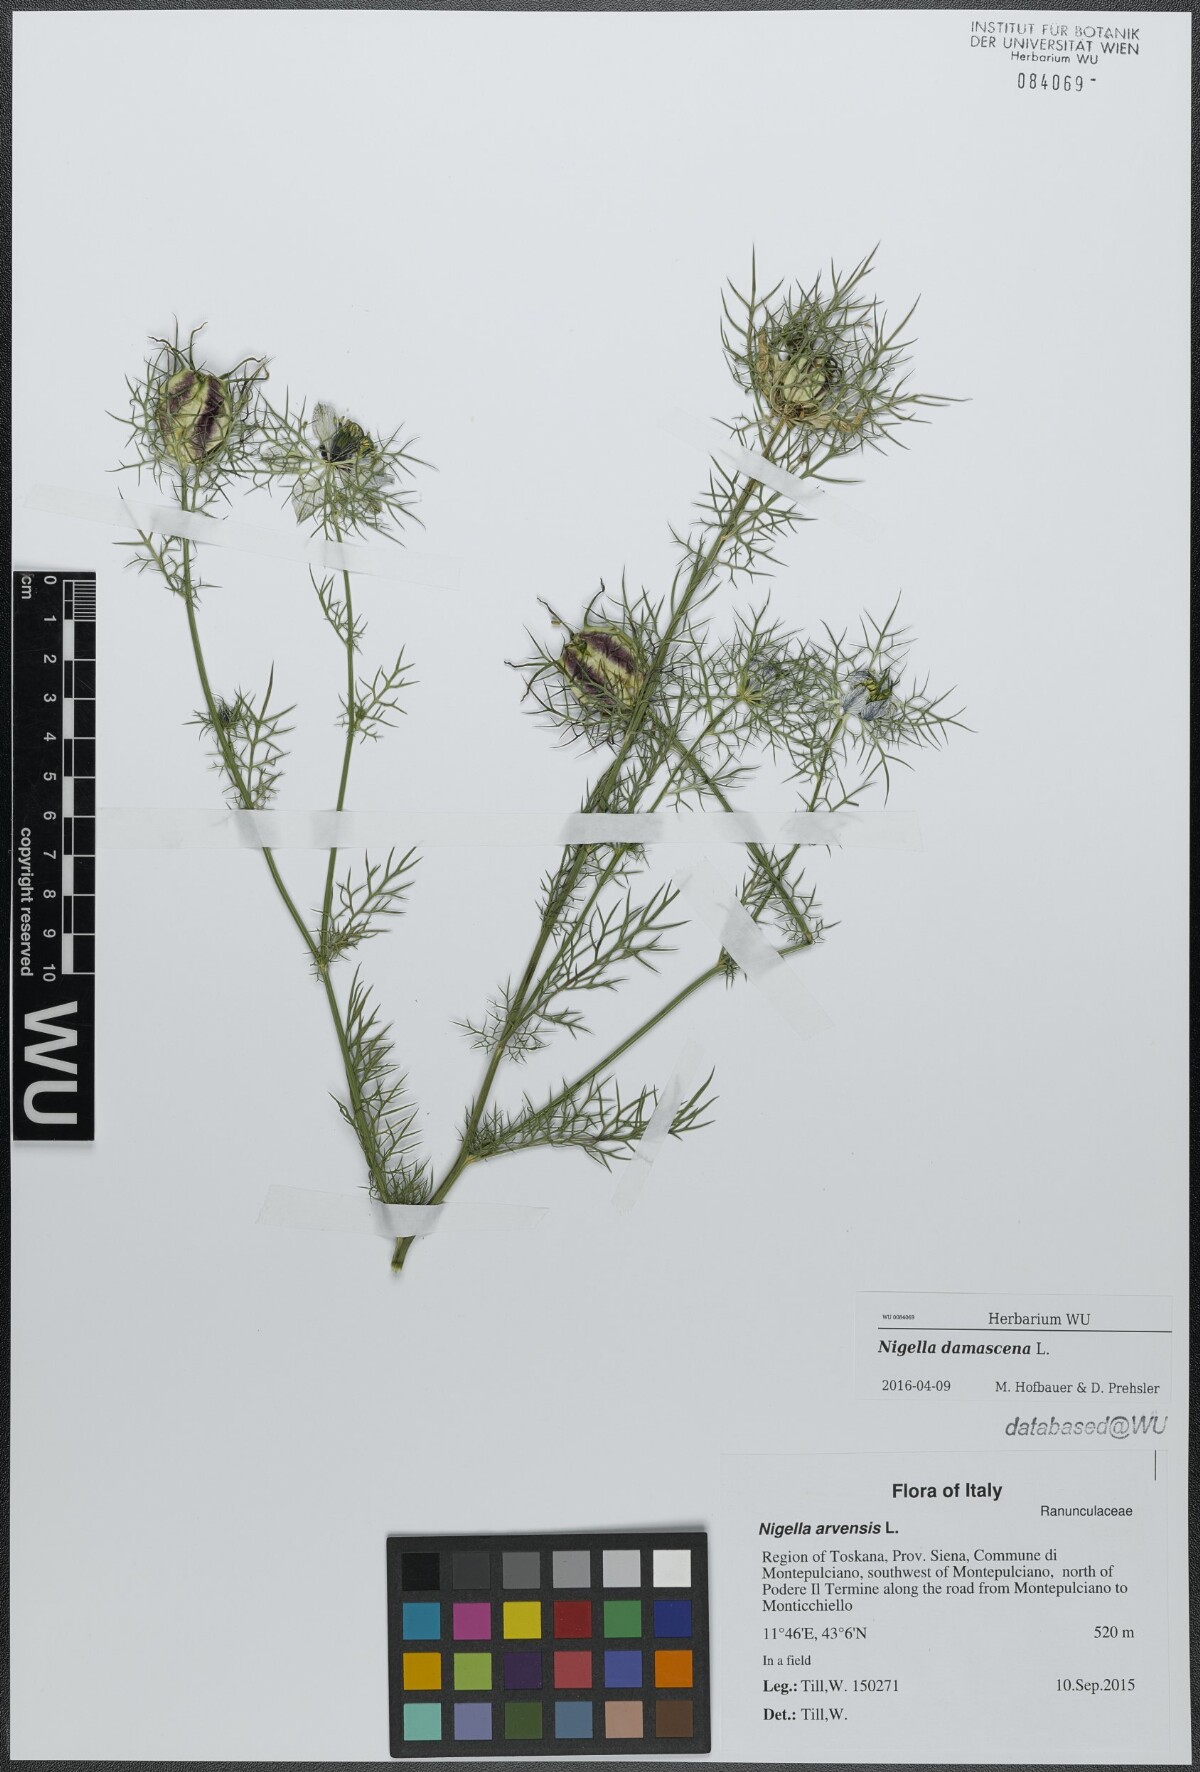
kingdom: Plantae
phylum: Tracheophyta
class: Magnoliopsida
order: Ranunculales
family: Ranunculaceae
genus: Nigella
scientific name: Nigella damascena
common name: Love-in-a-mist
